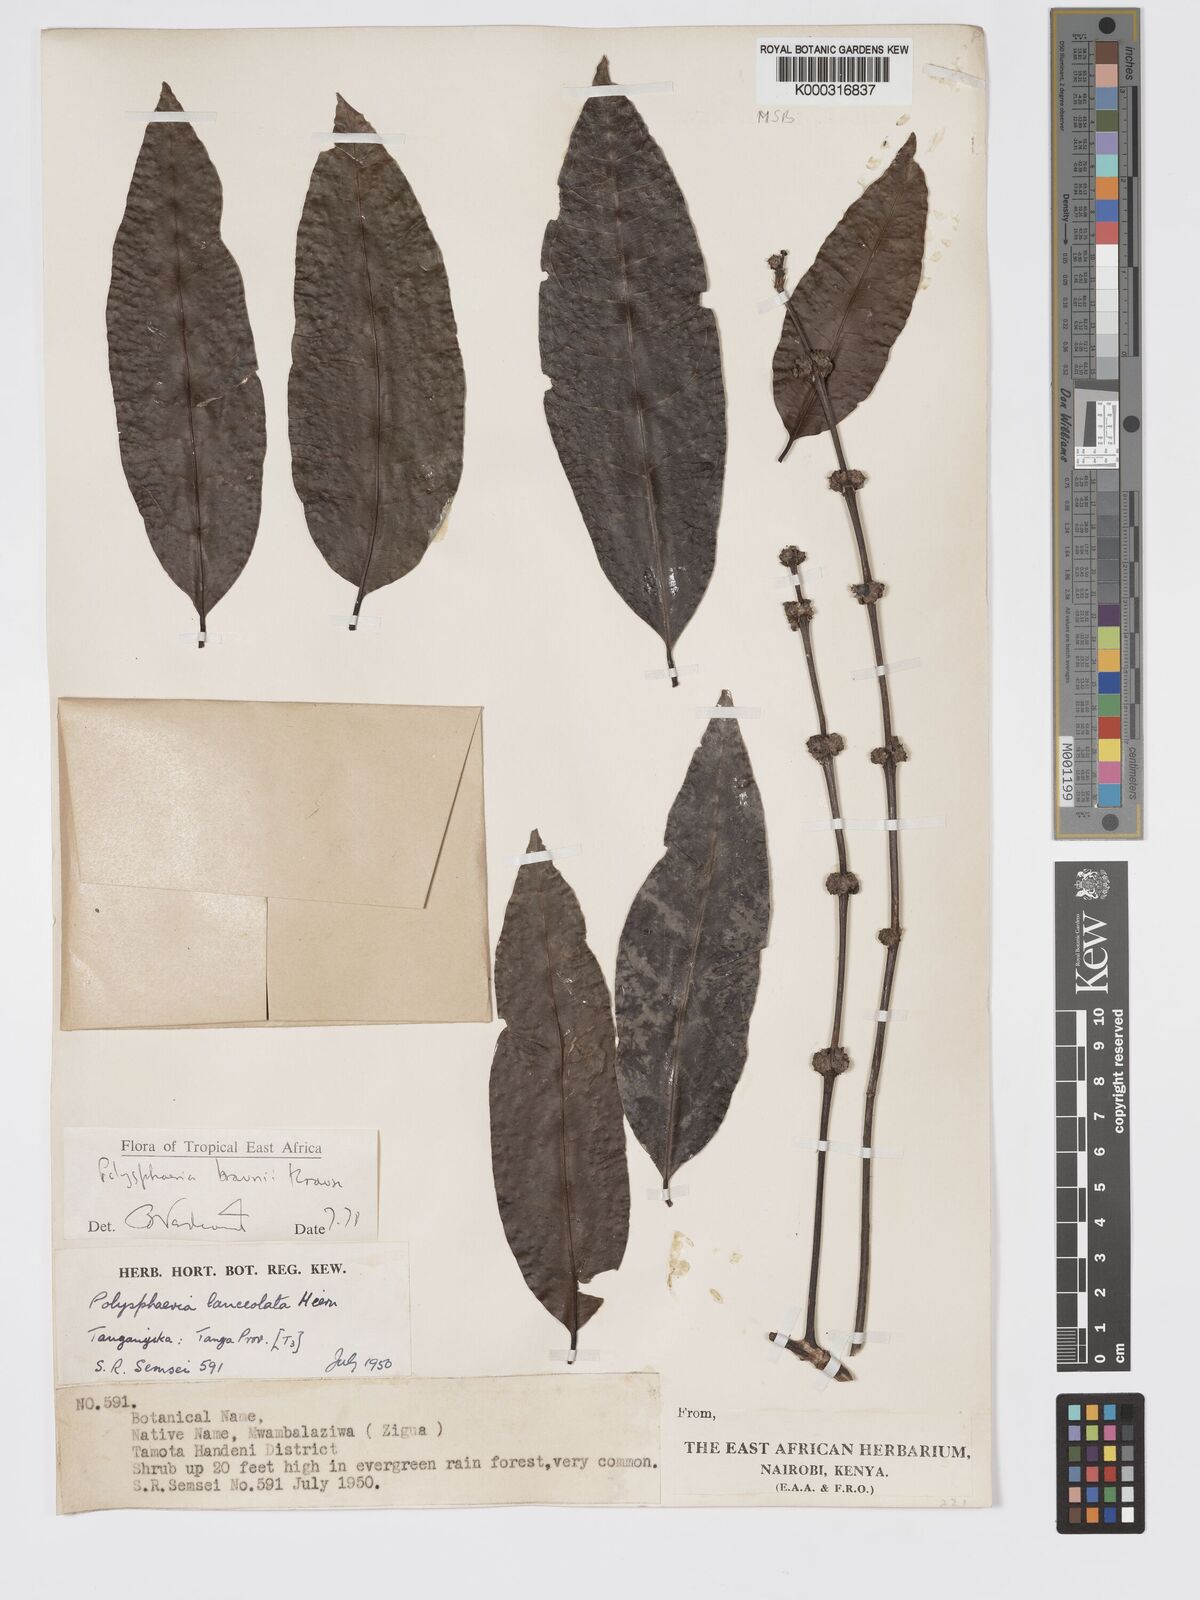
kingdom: Plantae
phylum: Tracheophyta
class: Magnoliopsida
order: Gentianales
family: Rubiaceae
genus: Polysphaeria
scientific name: Polysphaeria braunii
